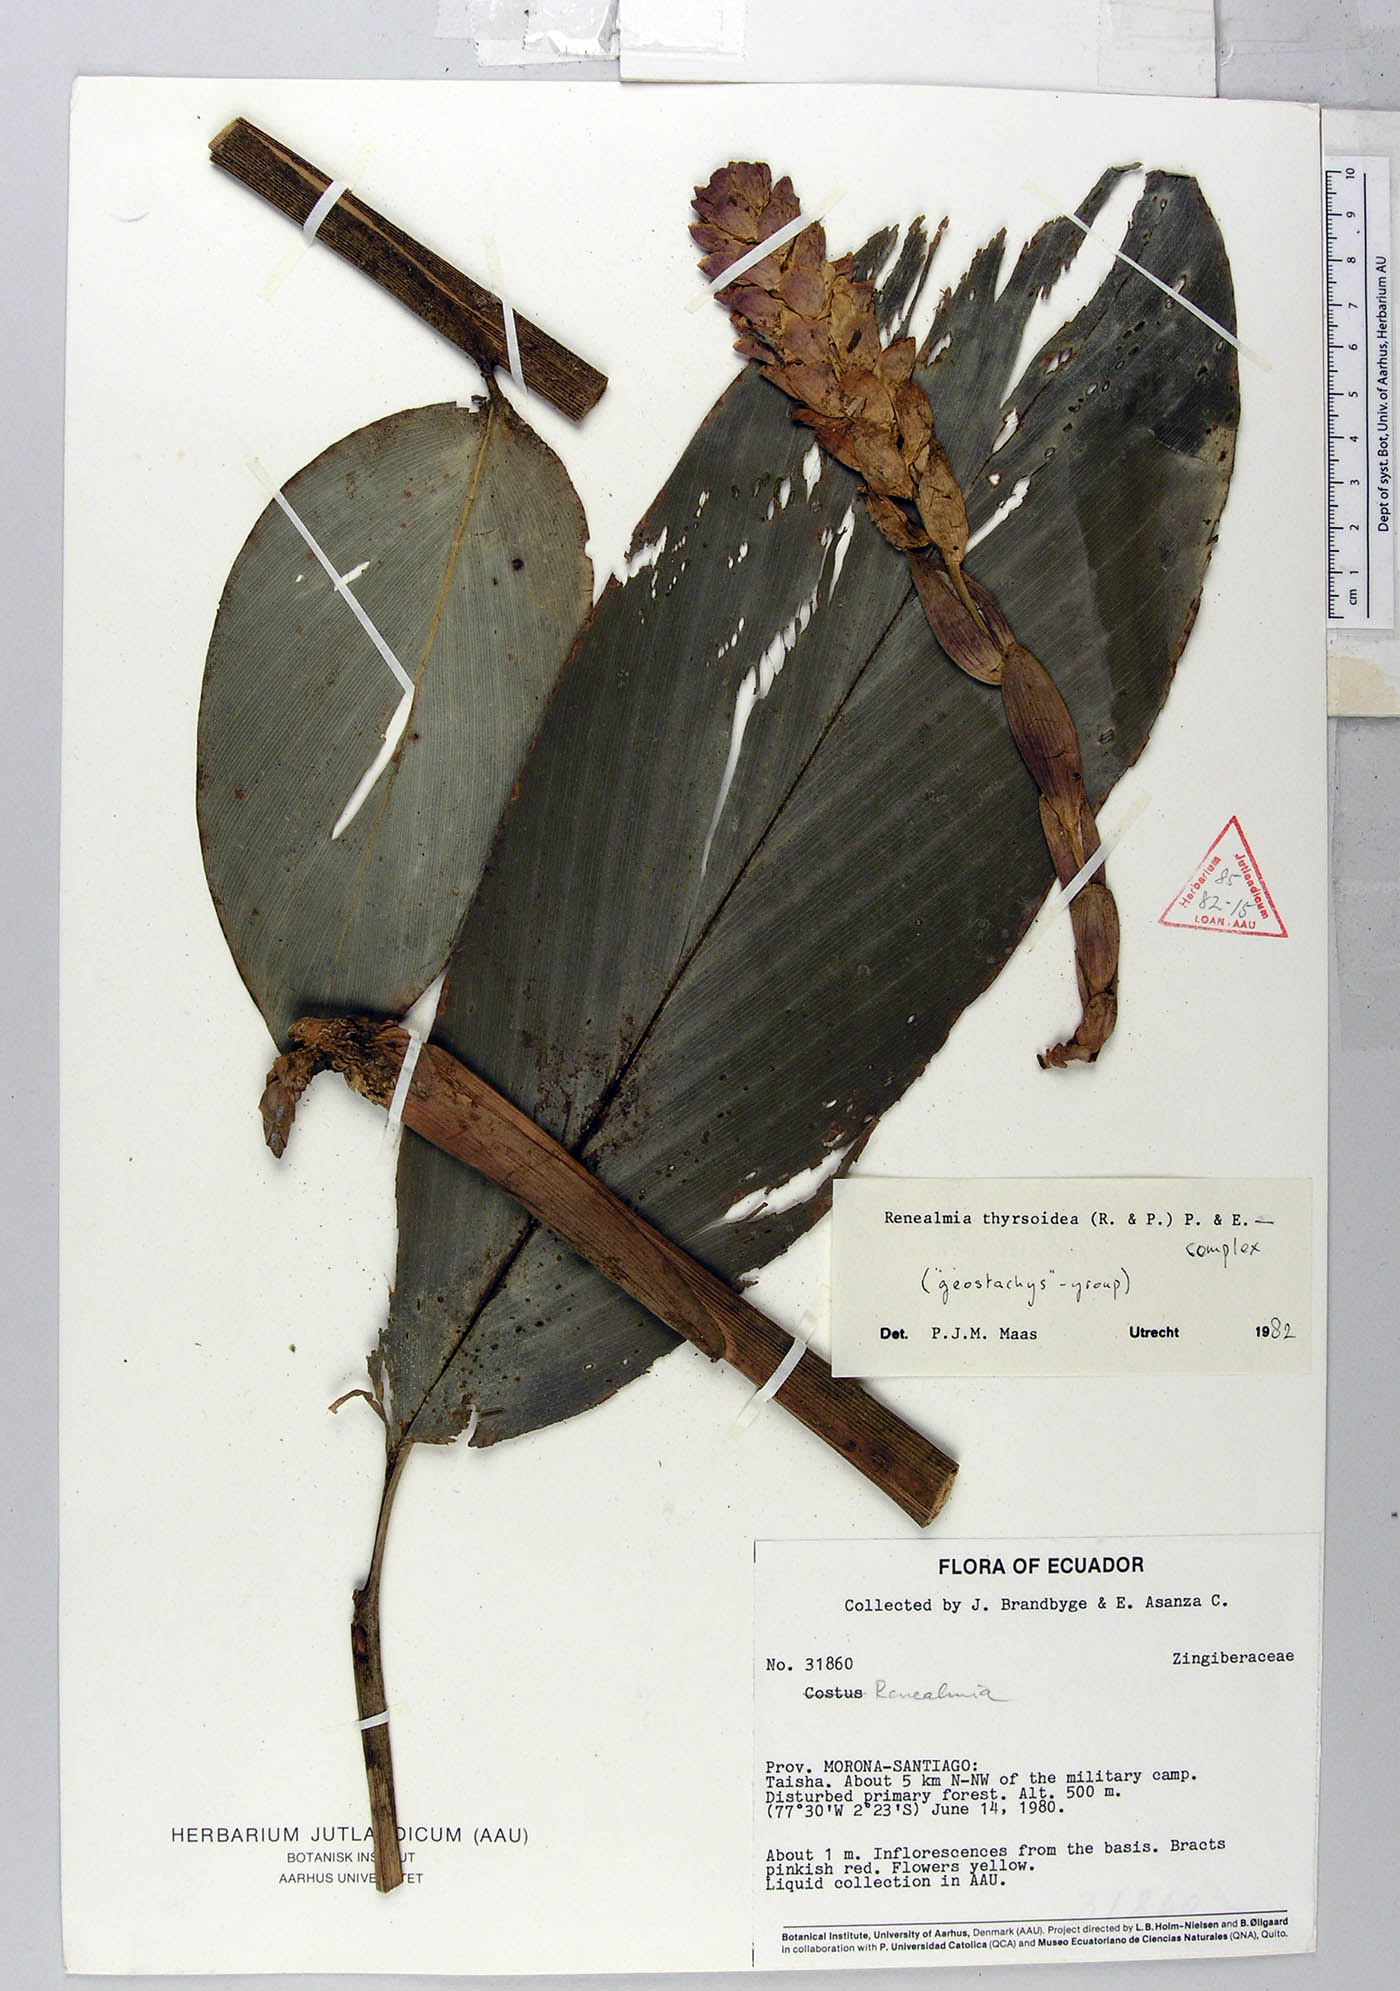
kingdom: Plantae
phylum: Tracheophyta
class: Liliopsida
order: Zingiberales
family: Zingiberaceae
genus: Renealmia
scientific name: Renealmia thyrsoidea
